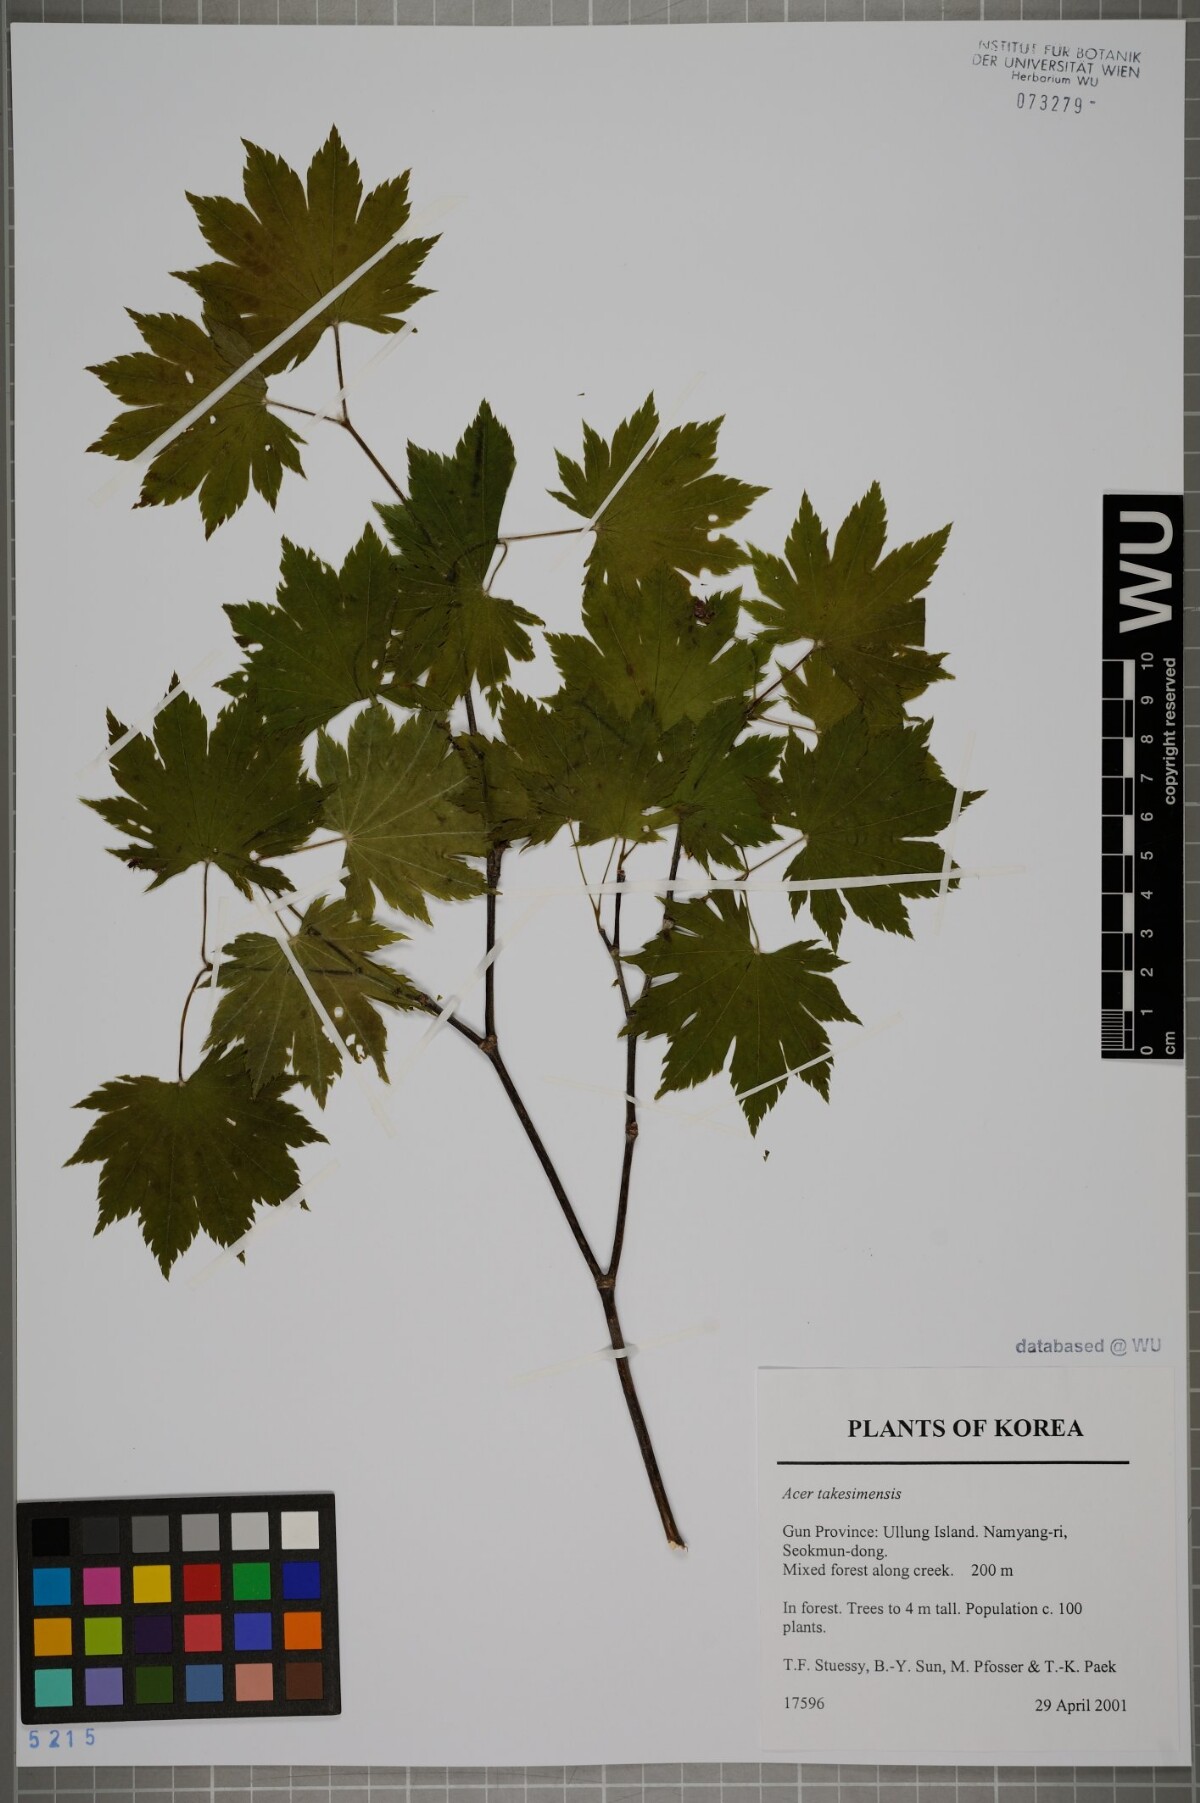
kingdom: Plantae
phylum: Tracheophyta
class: Magnoliopsida
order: Sapindales
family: Sapindaceae
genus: Acer
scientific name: Acer pseudosieboldianum
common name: Korean maple
